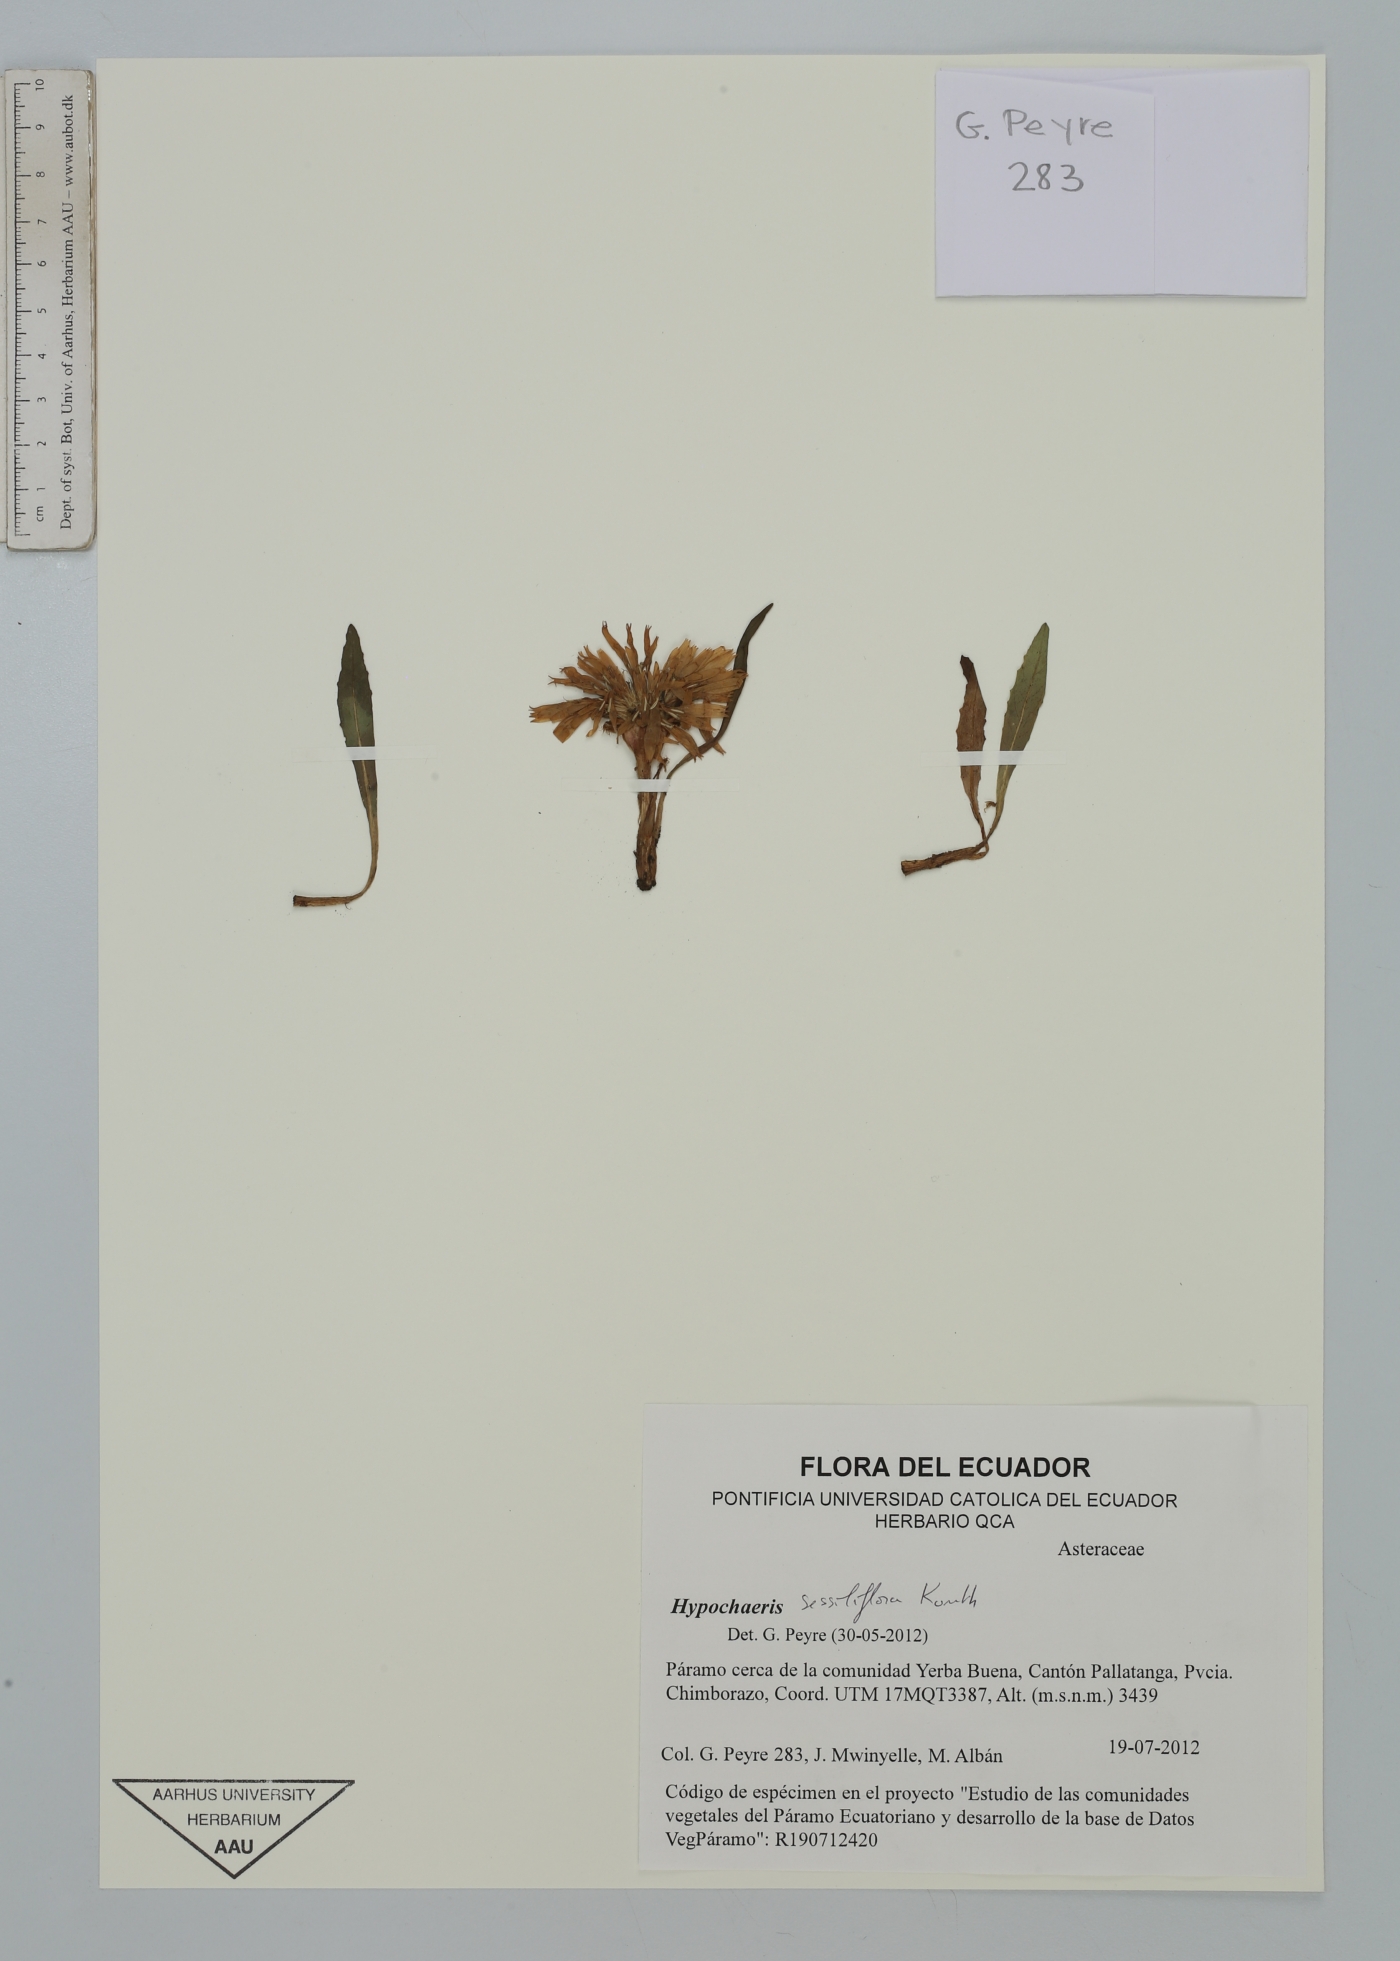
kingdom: Plantae
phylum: Tracheophyta
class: Magnoliopsida
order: Asterales
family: Asteraceae
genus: Hypochaeris
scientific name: Hypochaeris sessiliflora
